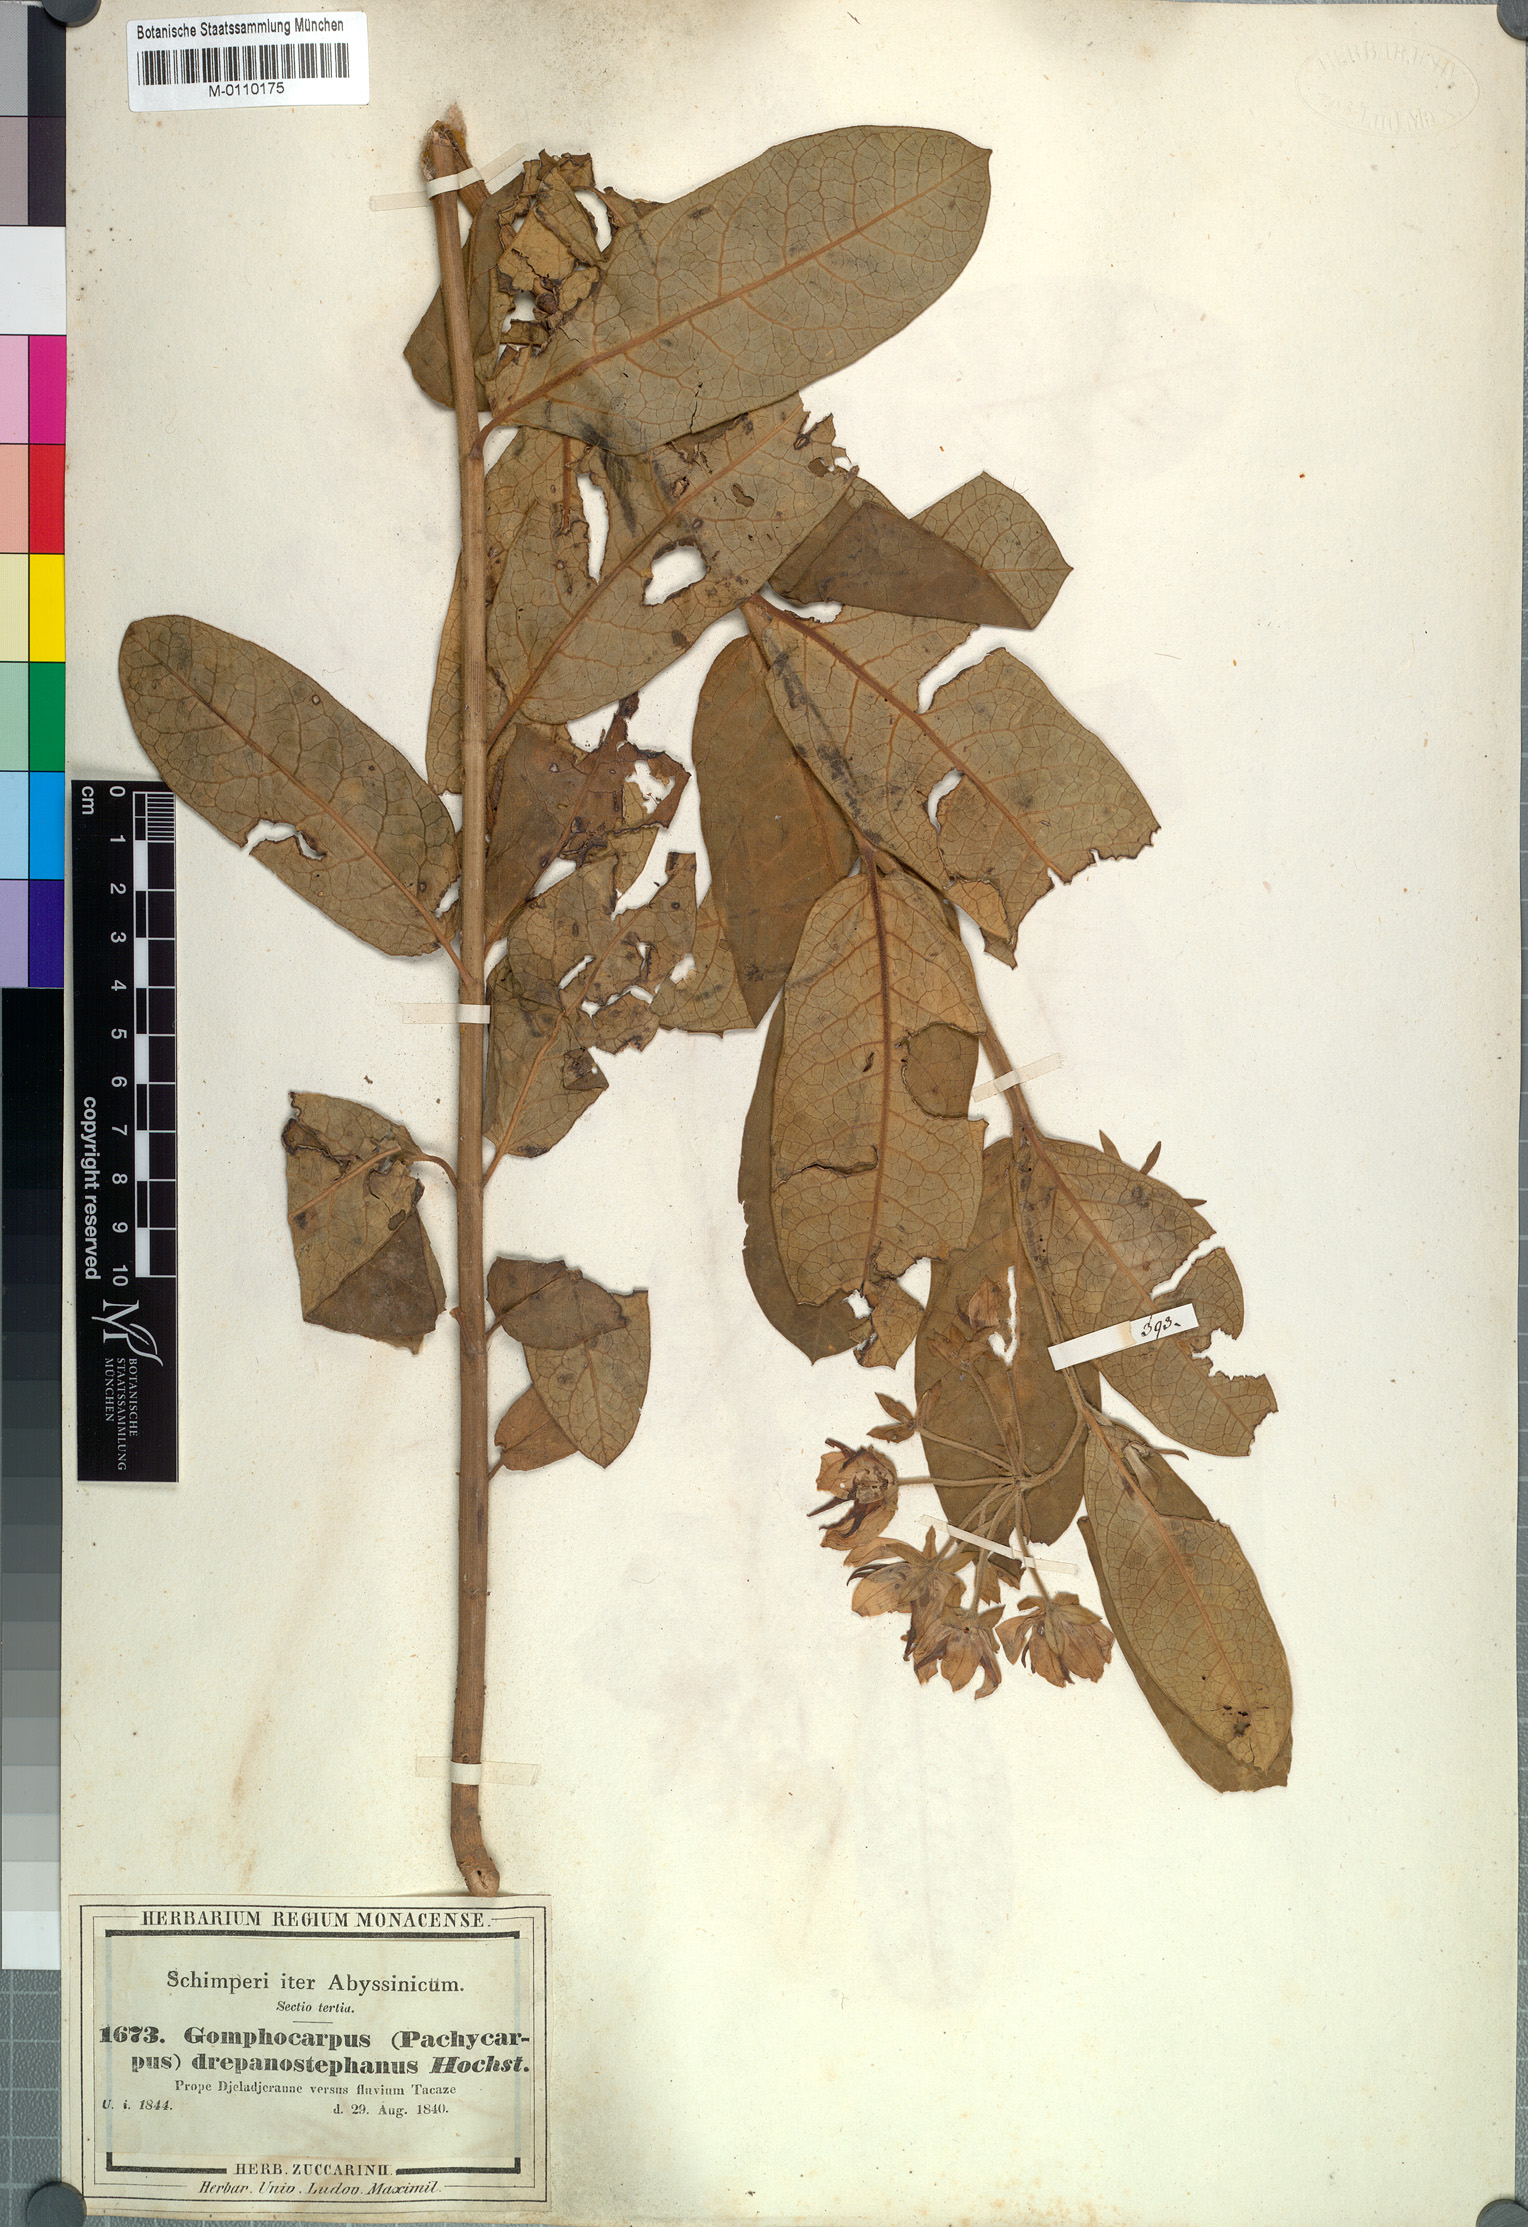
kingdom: Plantae
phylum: Tracheophyta
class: Magnoliopsida
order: Gentianales
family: Apocynaceae
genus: Pachycarpus
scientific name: Pachycarpus robustus
